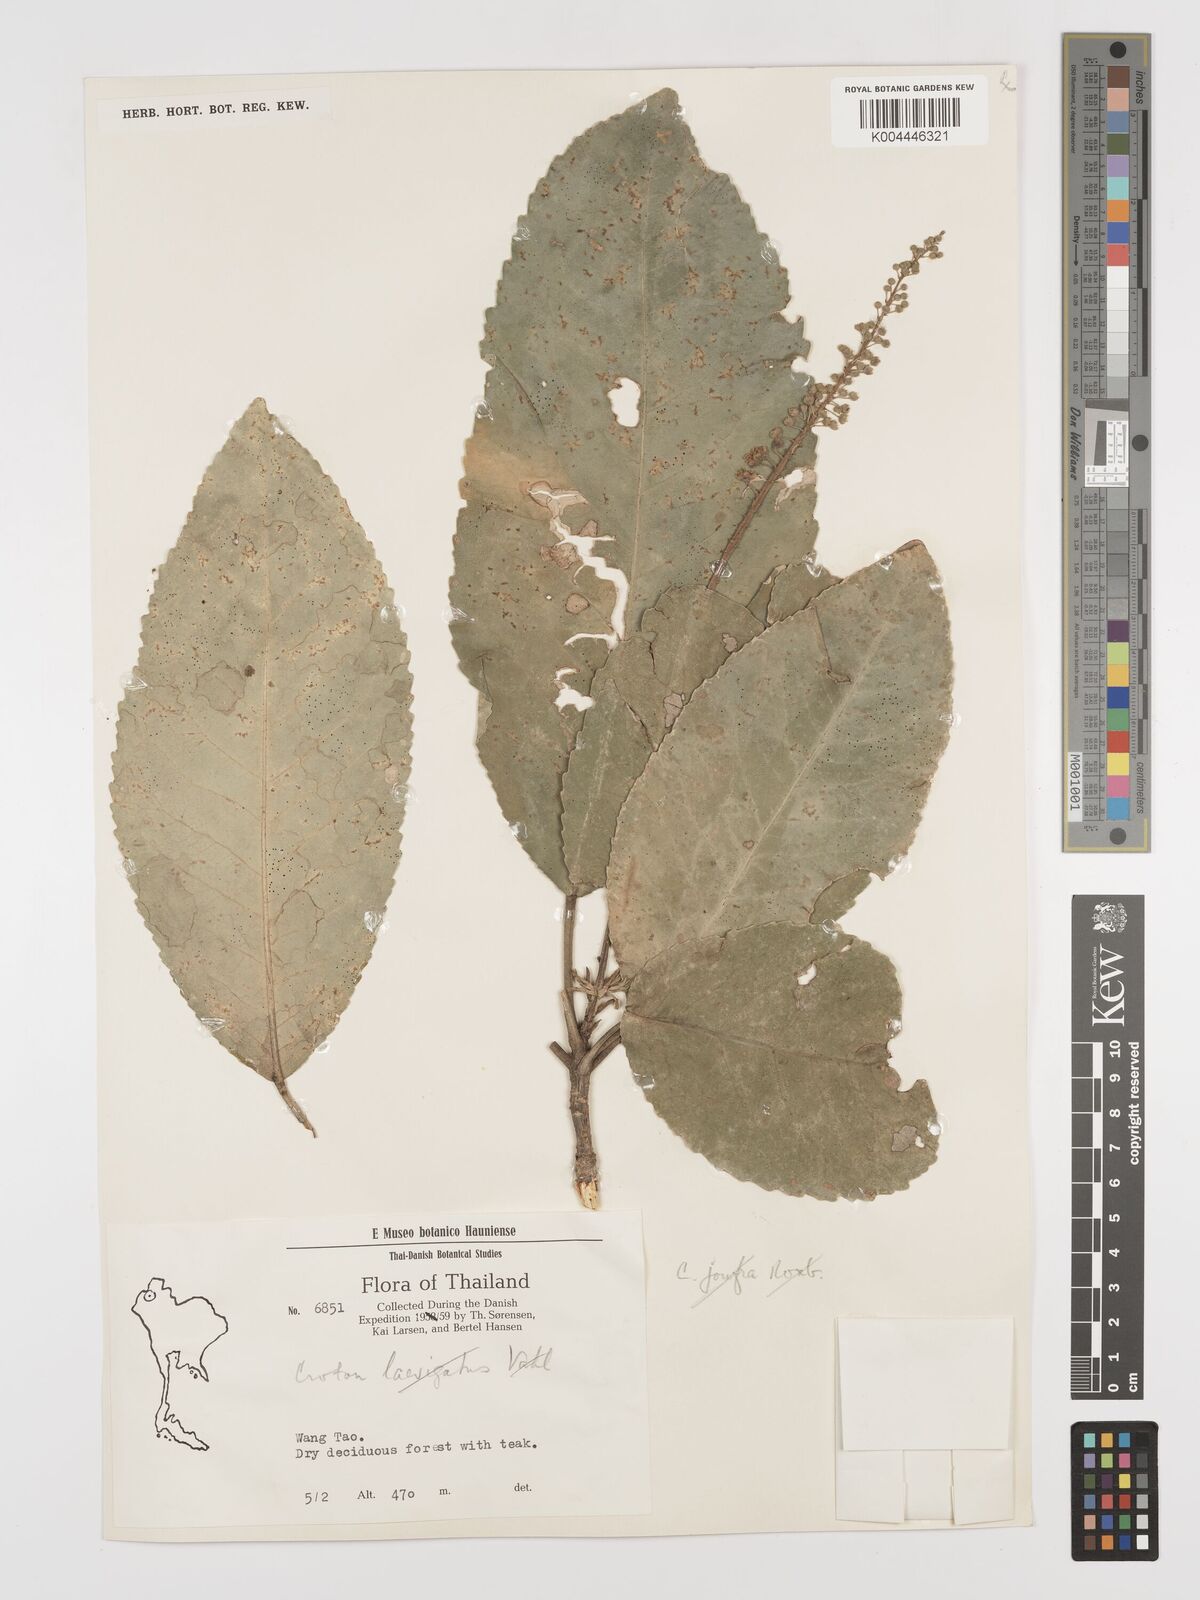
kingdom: Plantae
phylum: Tracheophyta
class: Magnoliopsida
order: Malpighiales
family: Euphorbiaceae
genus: Baliospermum
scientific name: Baliospermum solanifolium
